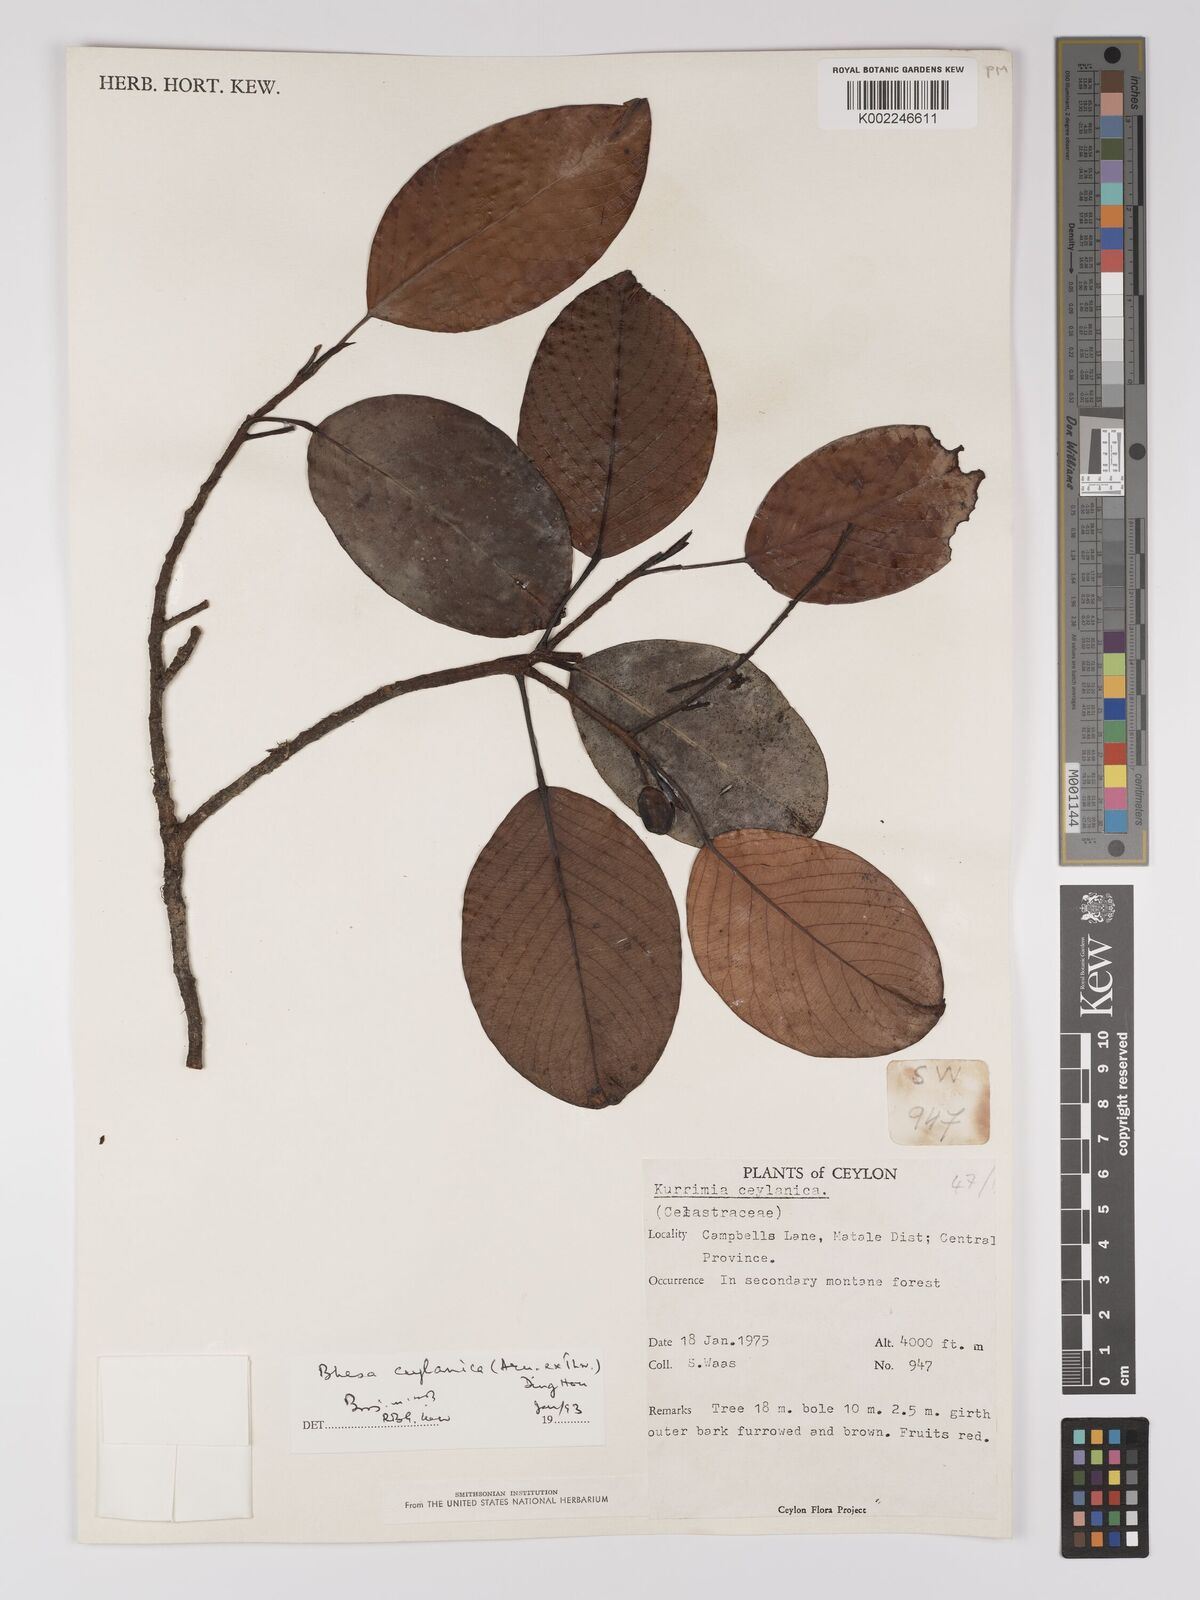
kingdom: Plantae
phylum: Tracheophyta
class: Magnoliopsida
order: Malpighiales
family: Centroplacaceae
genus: Bhesa
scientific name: Bhesa ceylanica
